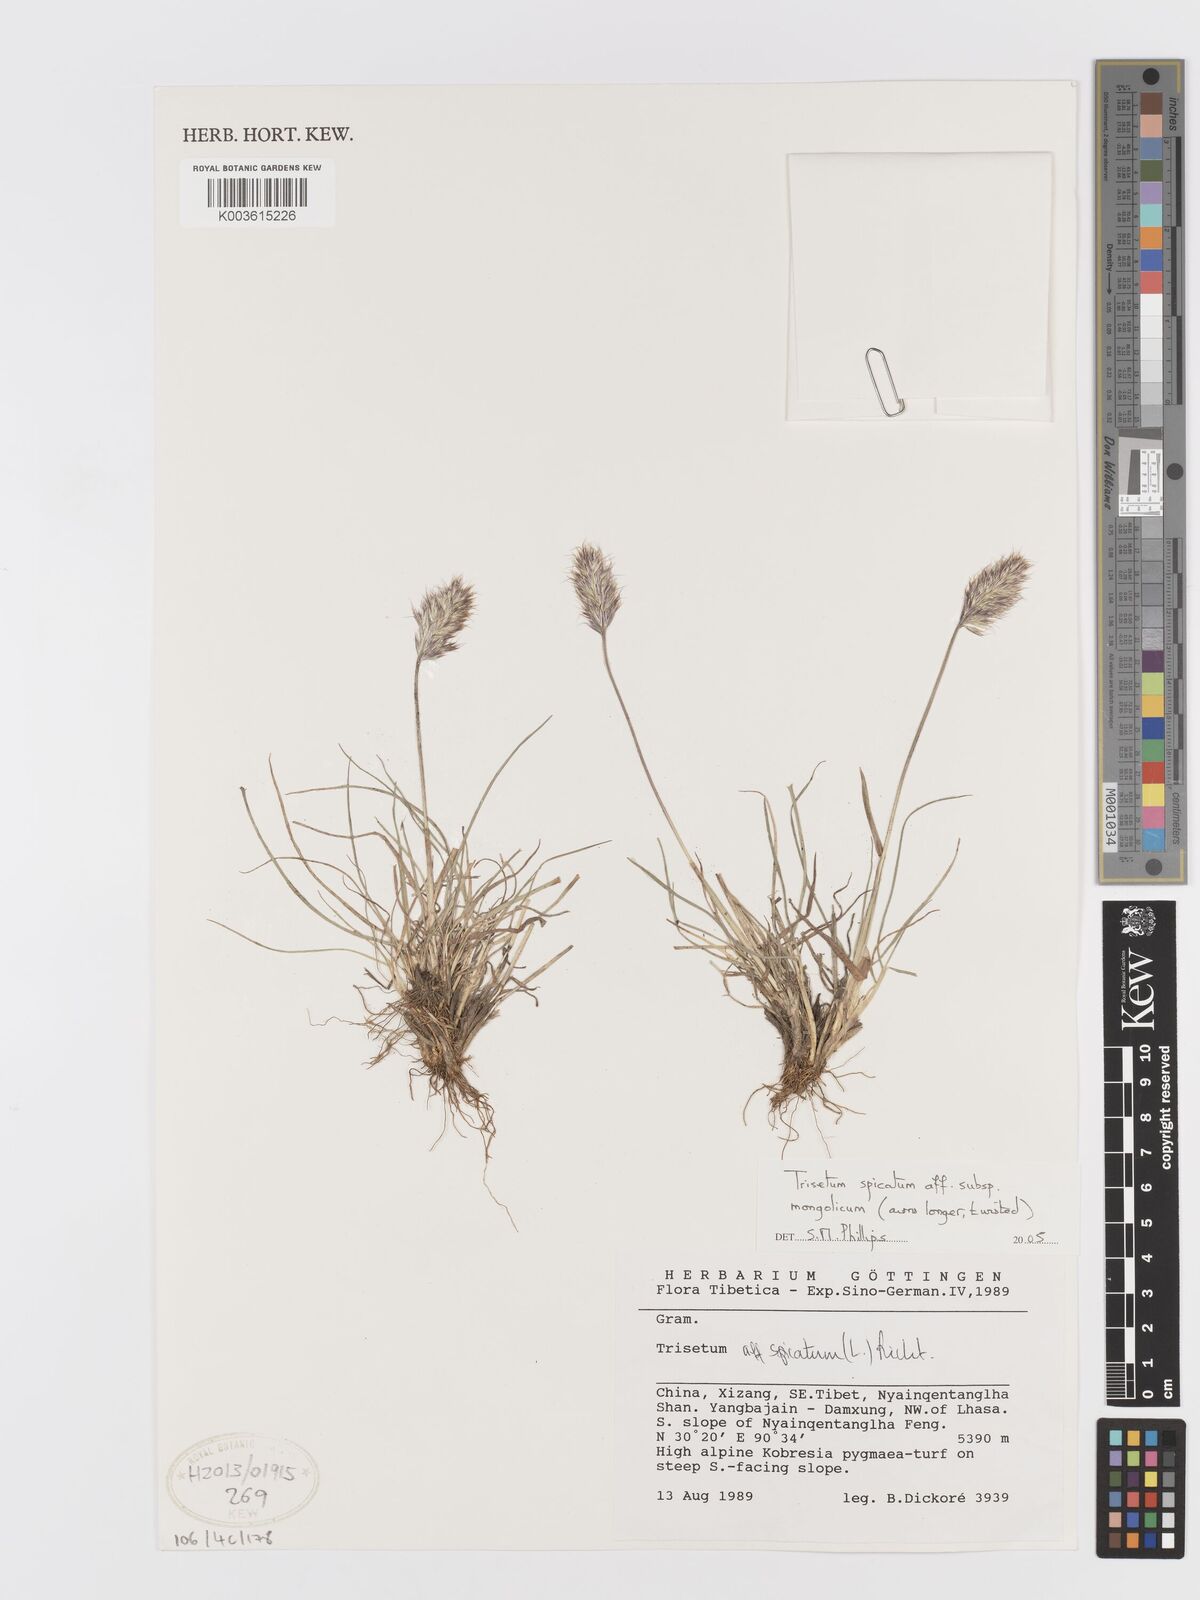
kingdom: Plantae
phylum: Tracheophyta
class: Liliopsida
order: Poales
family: Poaceae
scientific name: Poaceae
